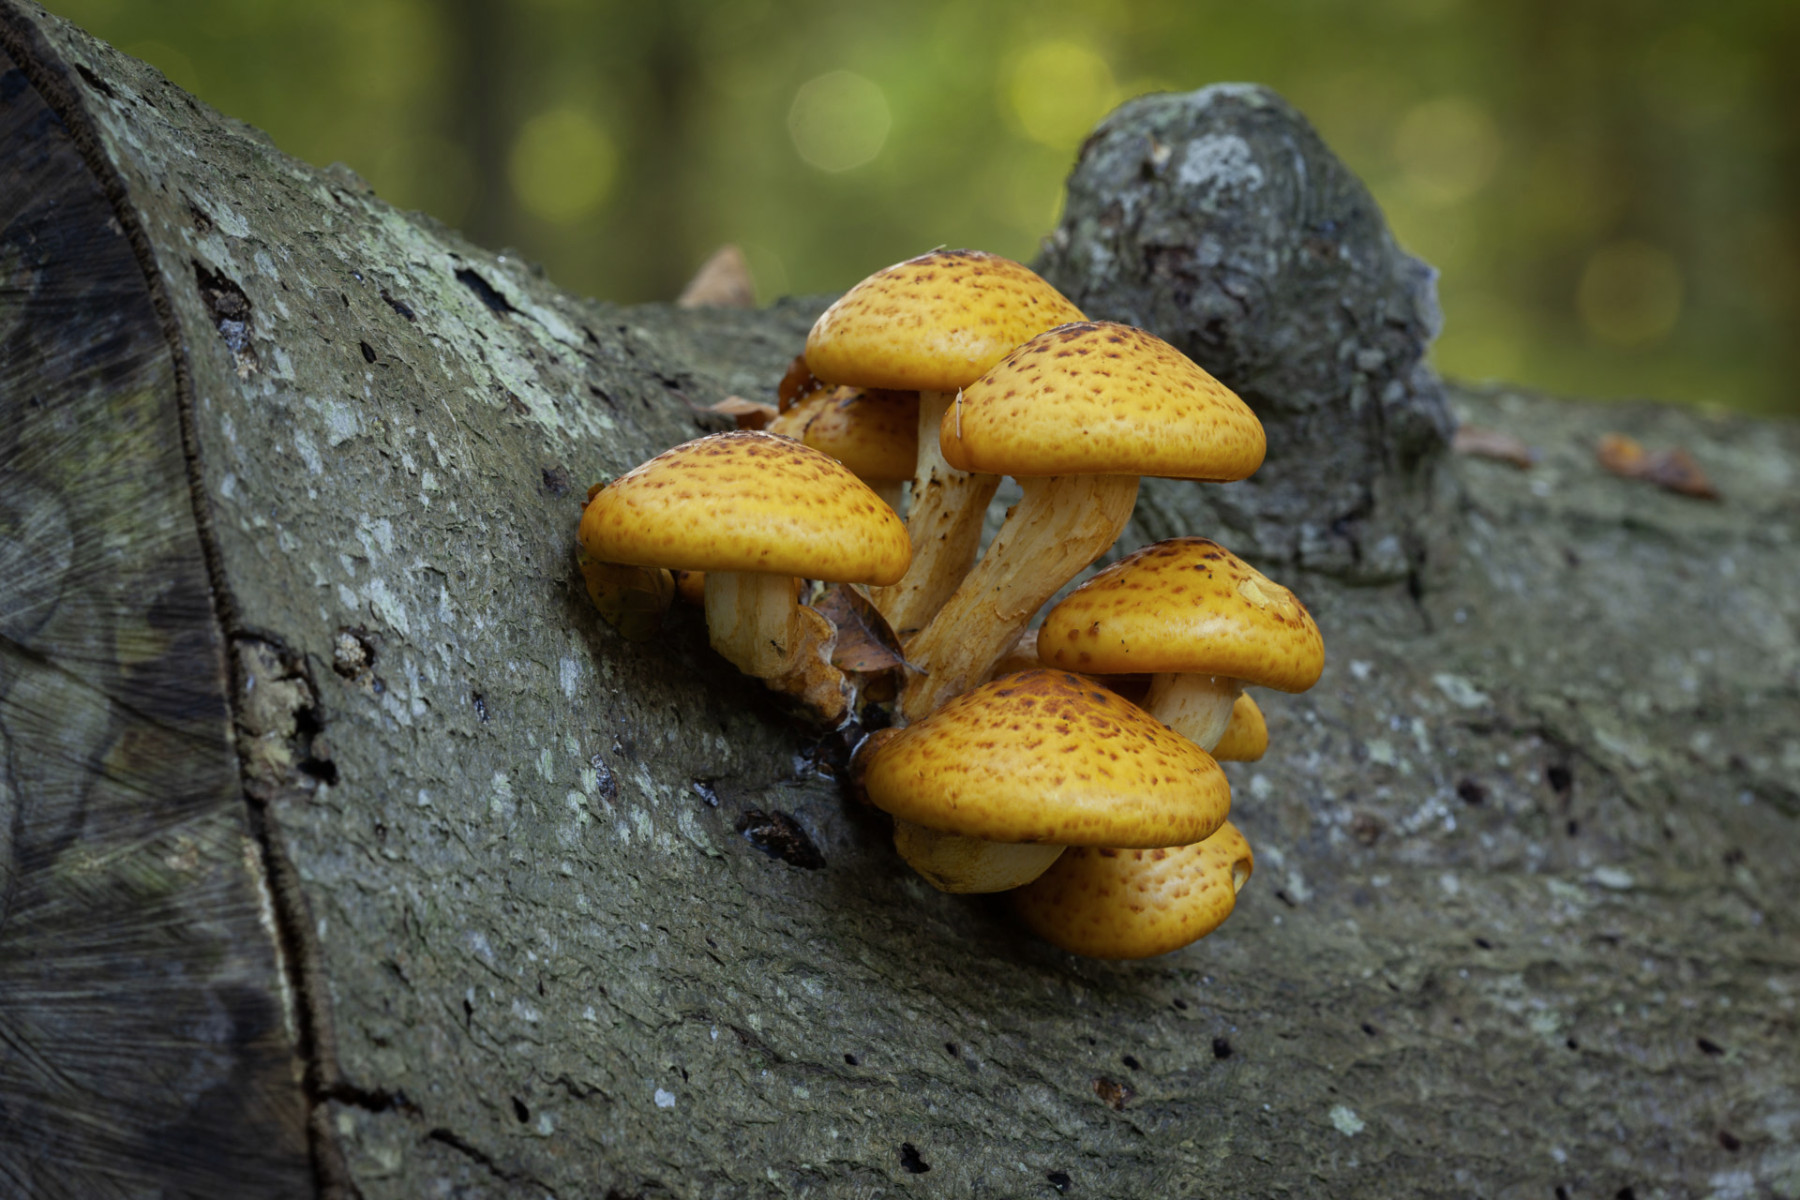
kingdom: Fungi
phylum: Basidiomycota
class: Agaricomycetes
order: Agaricales
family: Strophariaceae
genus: Pholiota
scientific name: Pholiota adiposa
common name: højtsiddende skælhat
